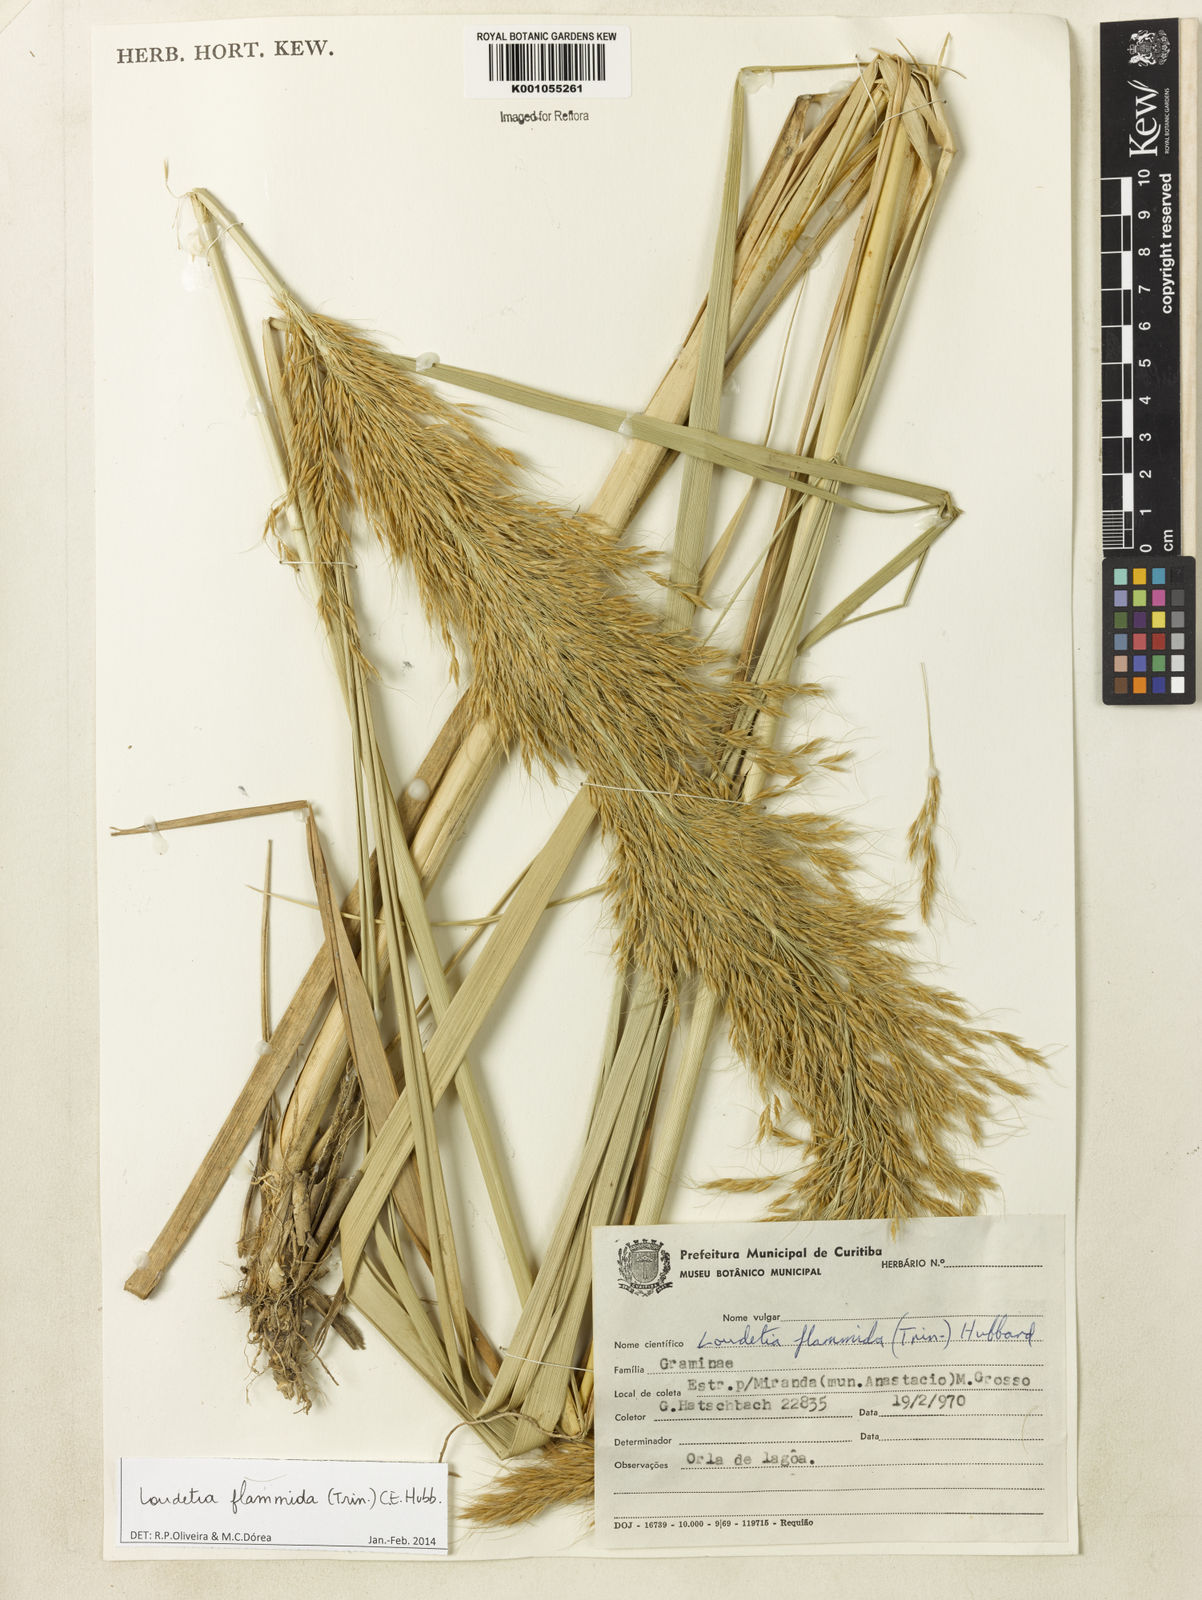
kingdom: Plantae
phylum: Tracheophyta
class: Liliopsida
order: Poales
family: Poaceae
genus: Loudetia
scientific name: Loudetia flammida
